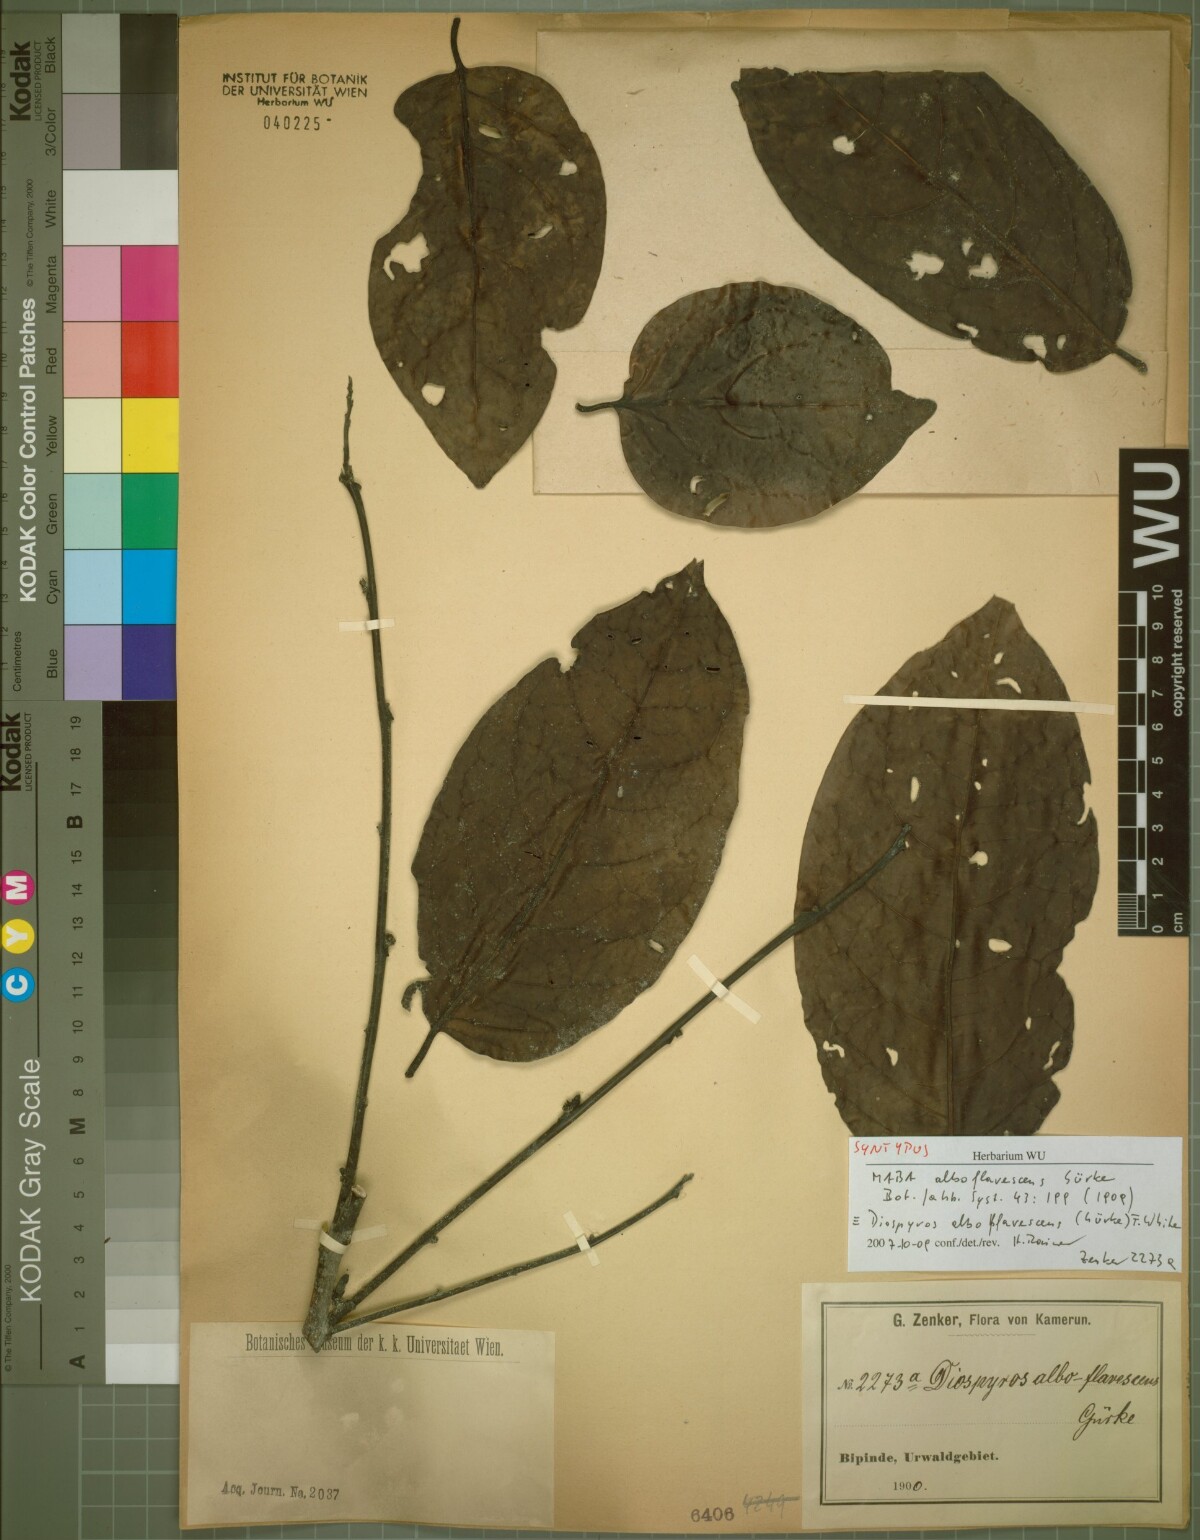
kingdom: Plantae
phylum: Tracheophyta
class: Magnoliopsida
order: Ericales
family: Ebenaceae
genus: Diospyros
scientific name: Diospyros alboflavescens
